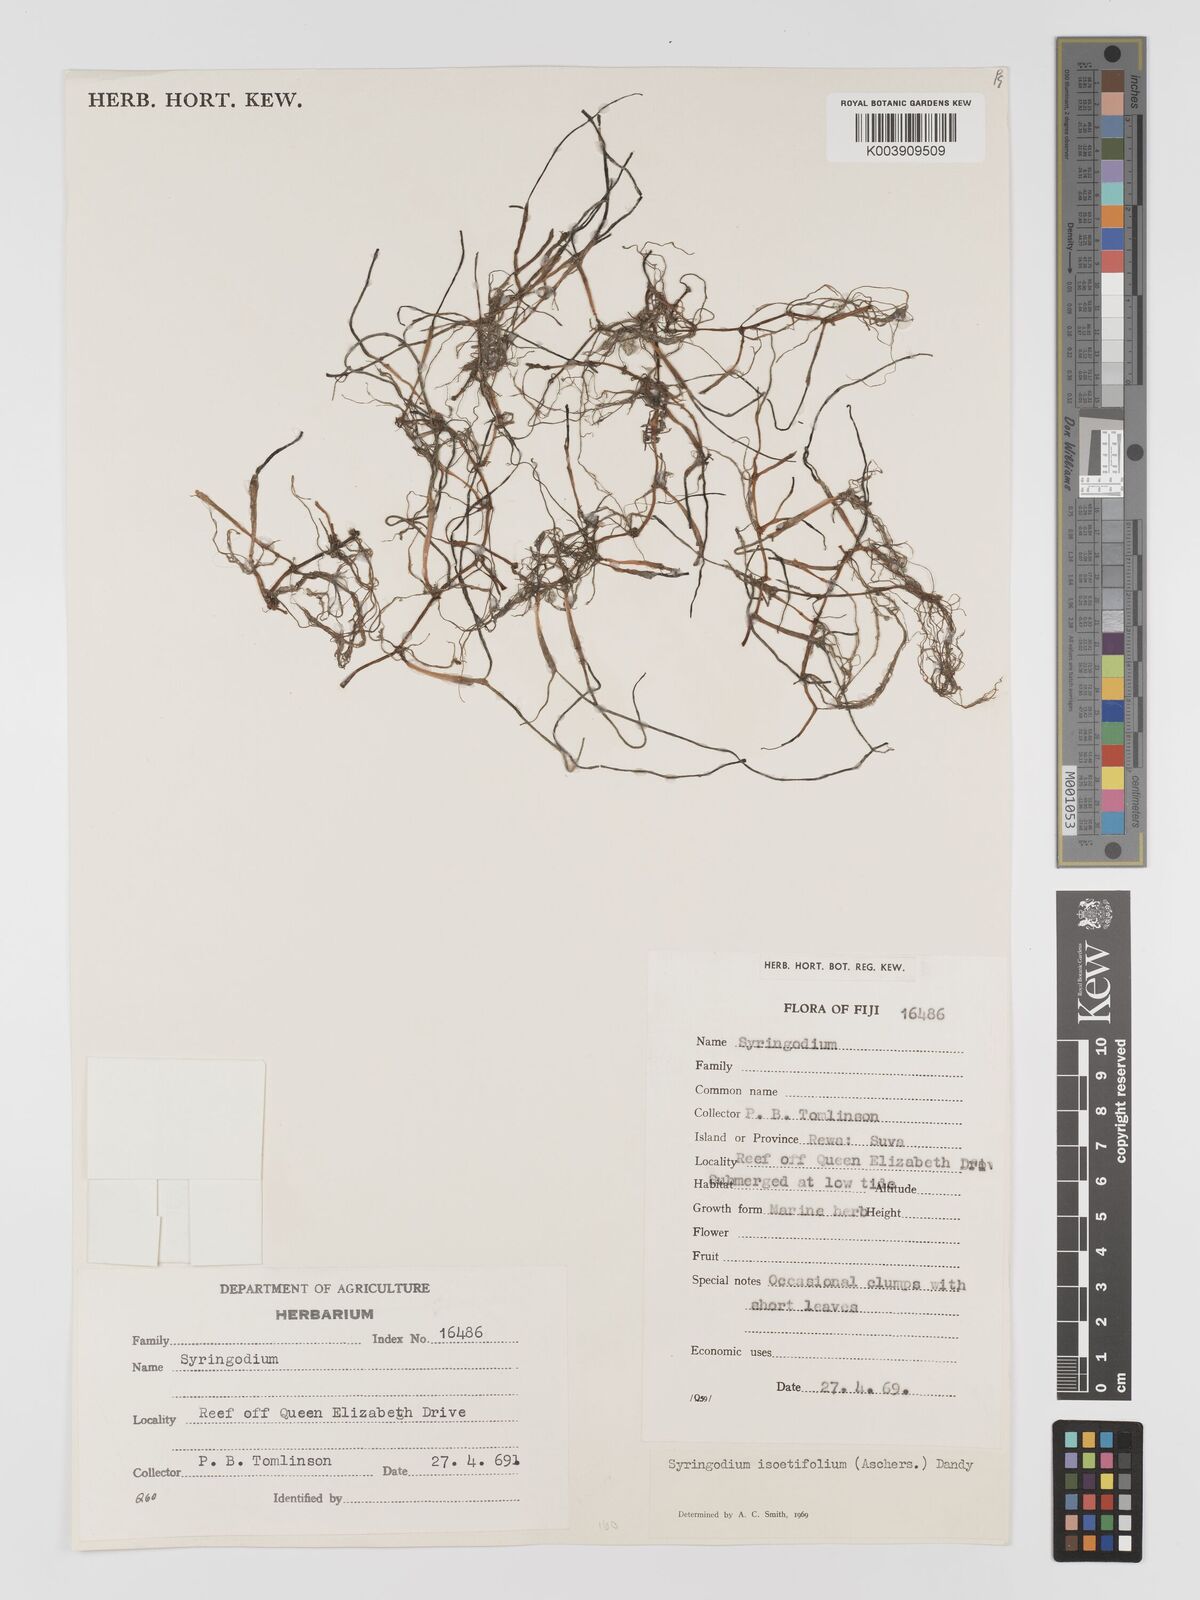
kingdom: Plantae
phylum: Tracheophyta
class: Liliopsida
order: Alismatales
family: Cymodoceaceae
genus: Syringodium
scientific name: Syringodium isoetifolium
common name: Species code: si
